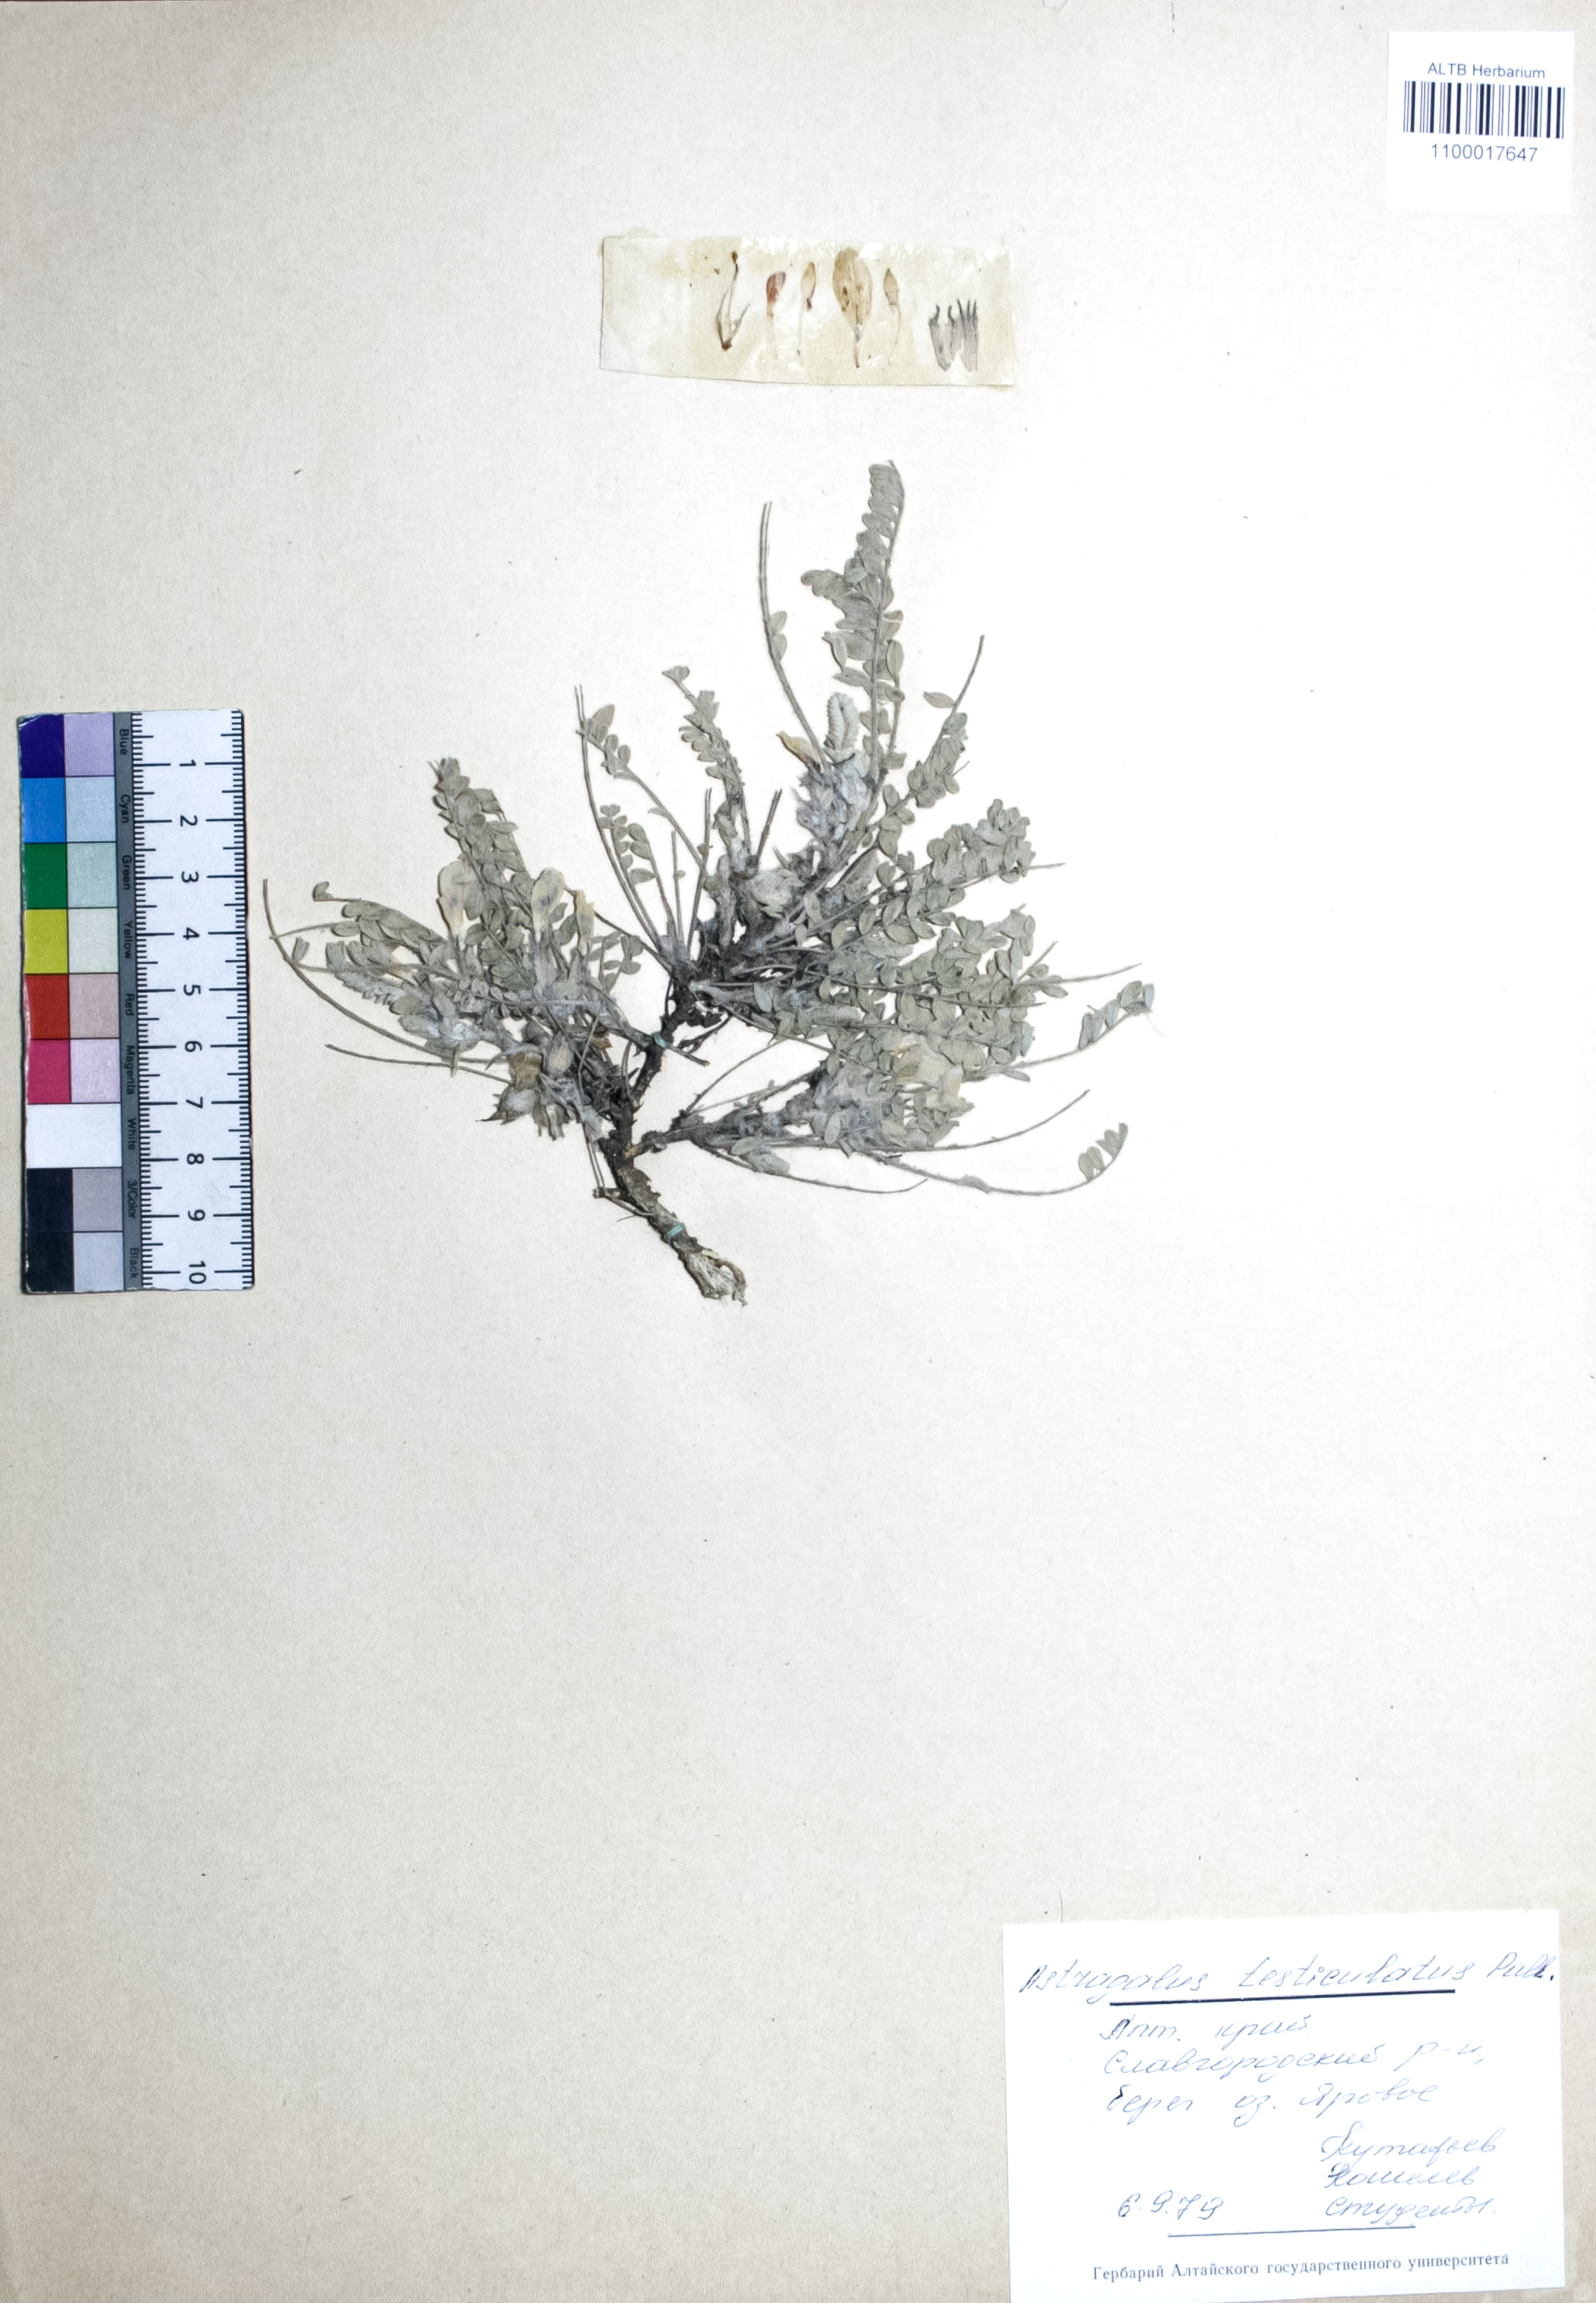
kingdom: Plantae
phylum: Tracheophyta
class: Magnoliopsida
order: Fabales
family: Fabaceae
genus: Astragalus
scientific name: Astragalus testiculatus
